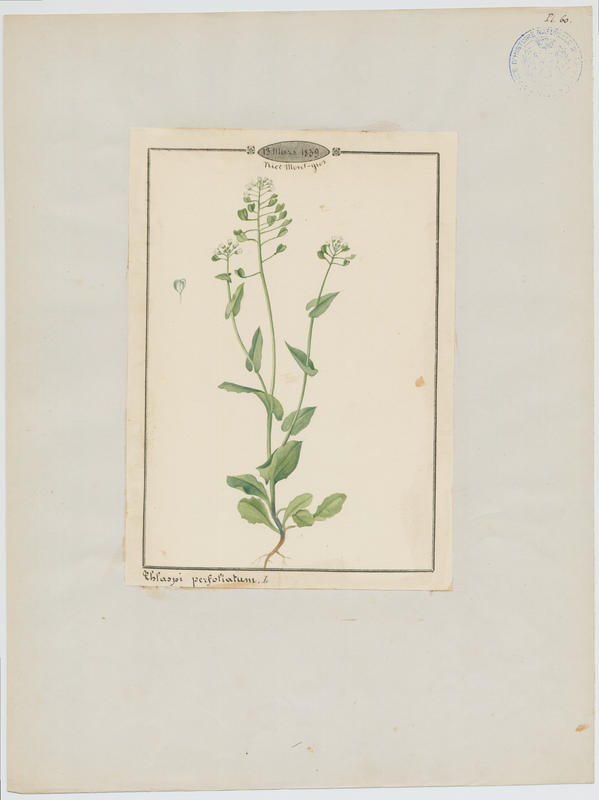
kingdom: Plantae
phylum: Tracheophyta
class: Magnoliopsida
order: Brassicales
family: Brassicaceae
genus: Noccaea
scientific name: Noccaea perfoliata
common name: Perfoliate pennycress
